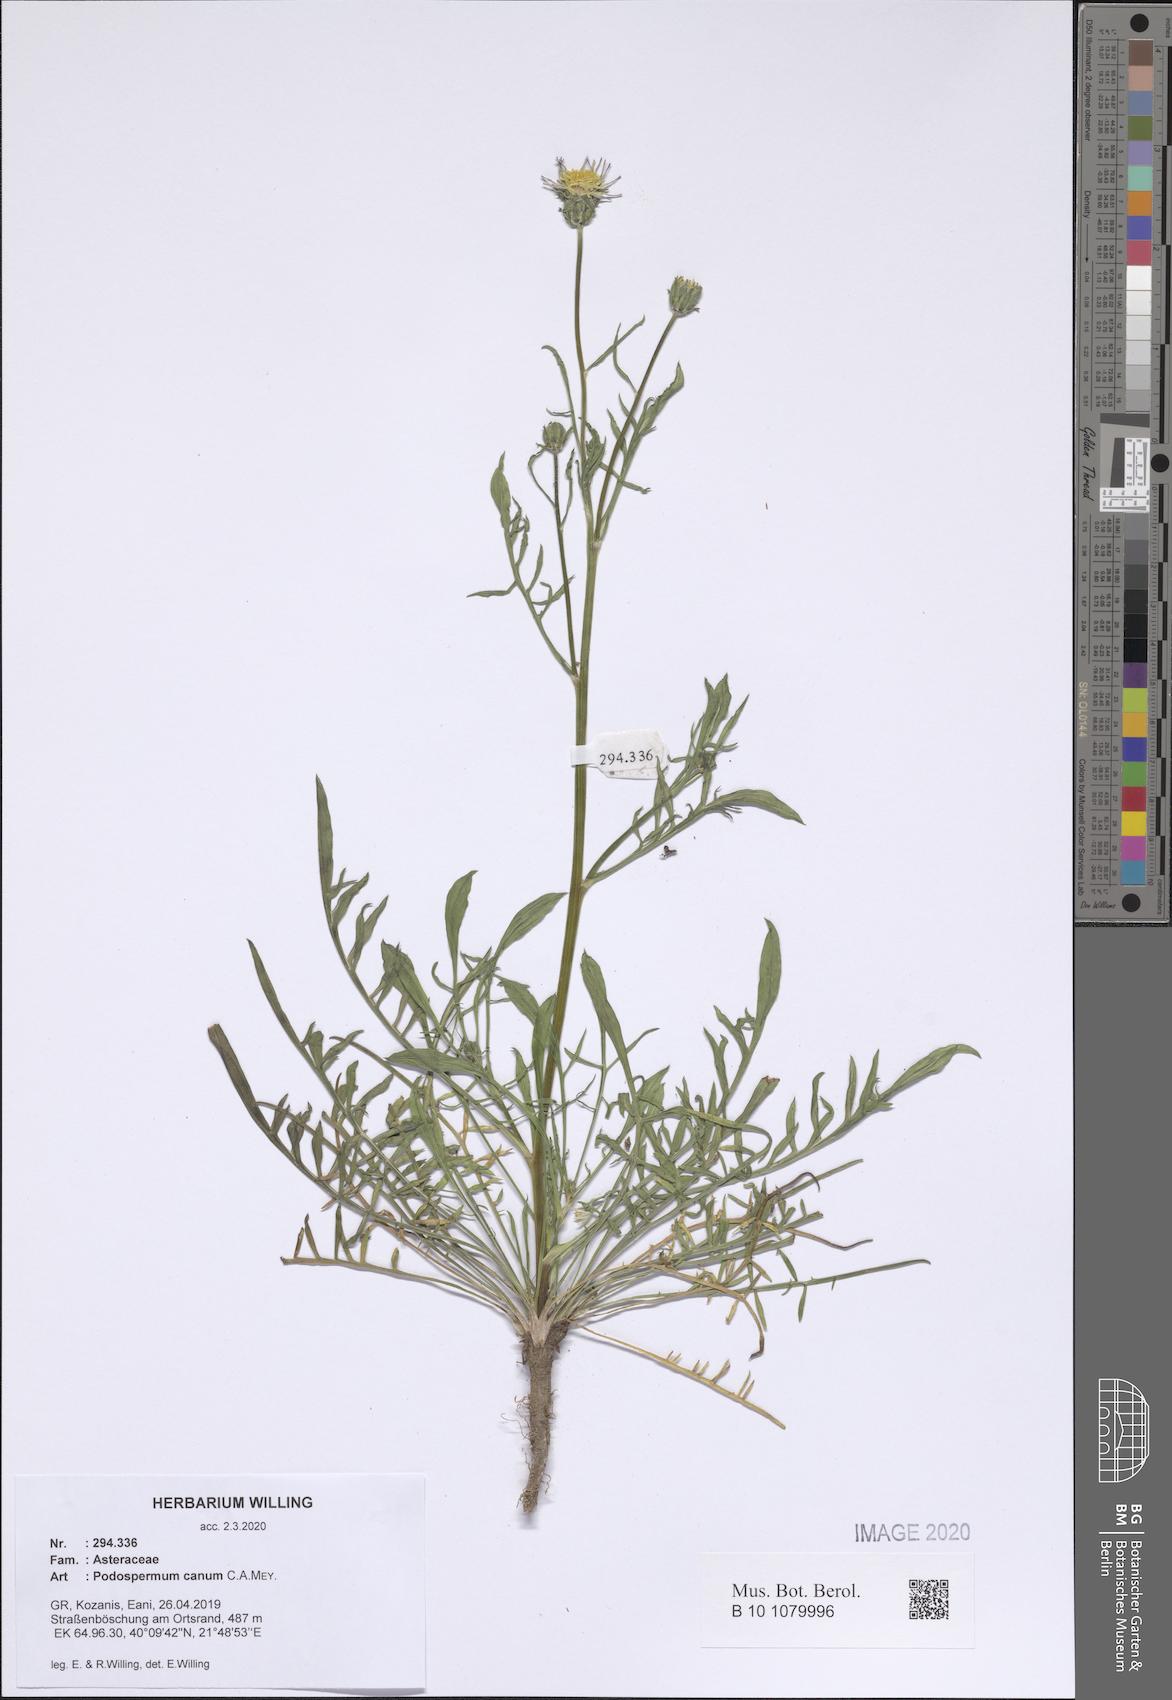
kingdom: Plantae
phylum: Tracheophyta
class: Magnoliopsida
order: Asterales
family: Asteraceae
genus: Scorzonera
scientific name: Scorzonera cana
